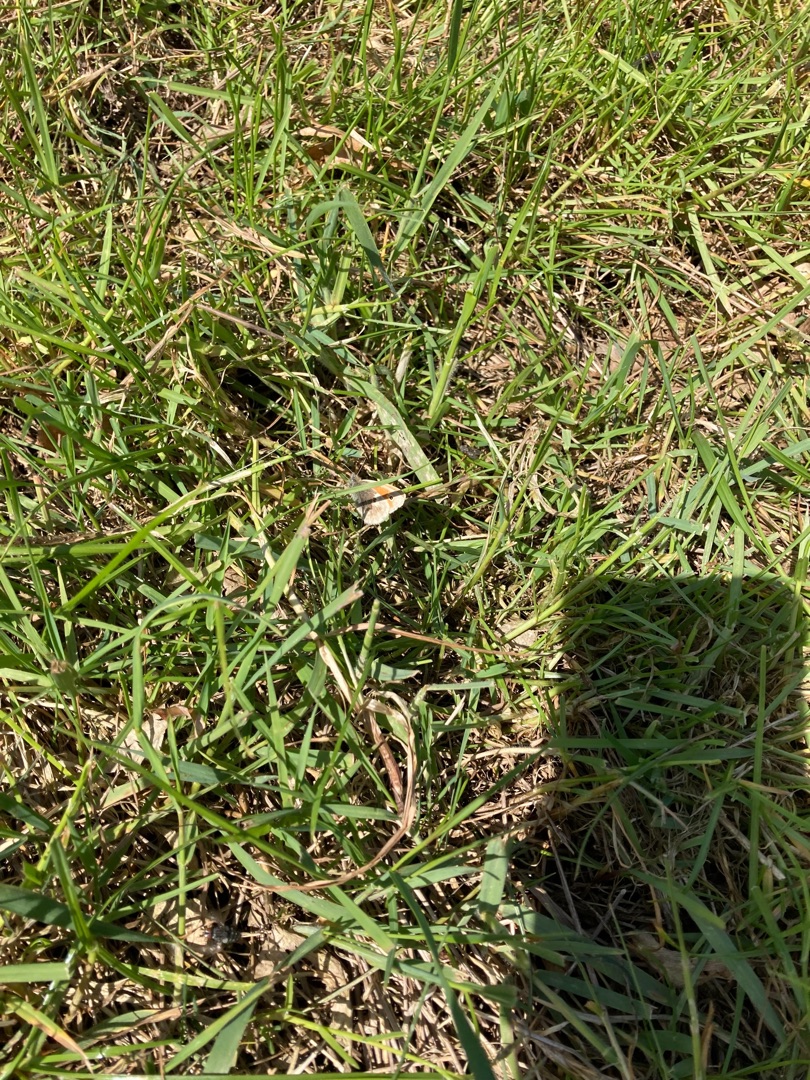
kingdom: Animalia
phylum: Arthropoda
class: Insecta
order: Lepidoptera
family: Nymphalidae
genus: Coenonympha
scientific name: Coenonympha pamphilus
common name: Okkergul randøje
